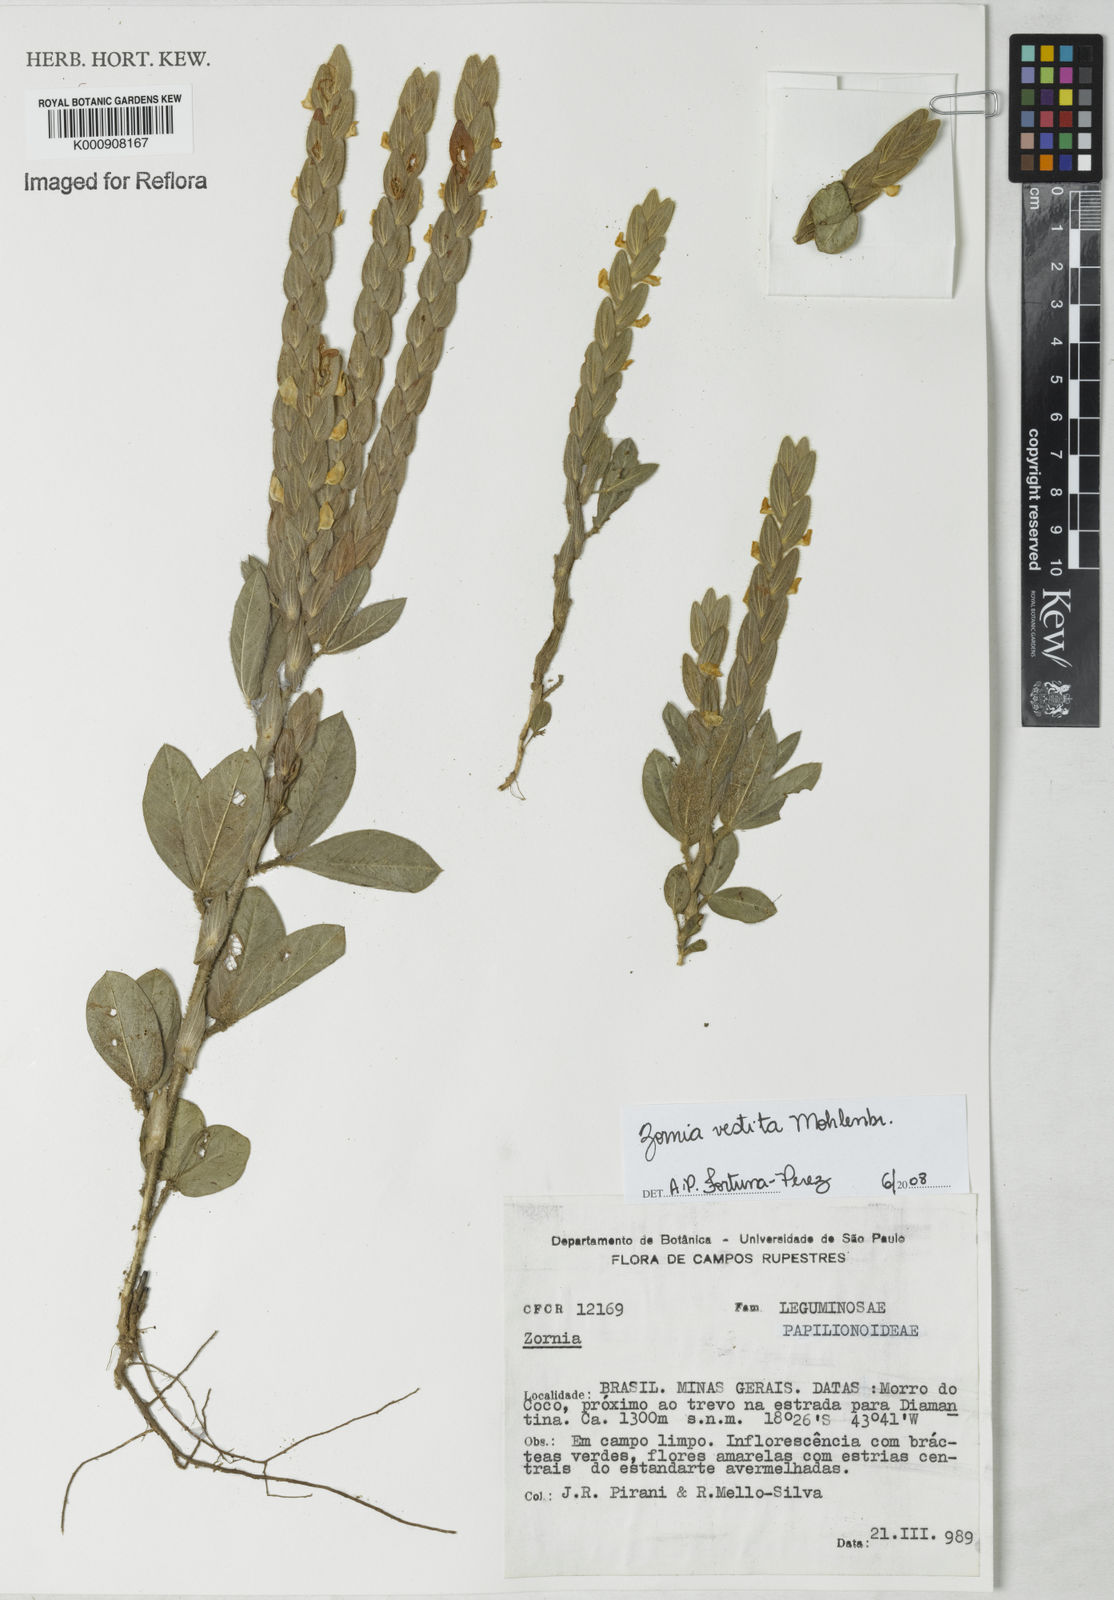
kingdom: Plantae
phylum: Tracheophyta
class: Magnoliopsida
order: Fabales
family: Fabaceae
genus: Zornia
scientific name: Zornia villosa
